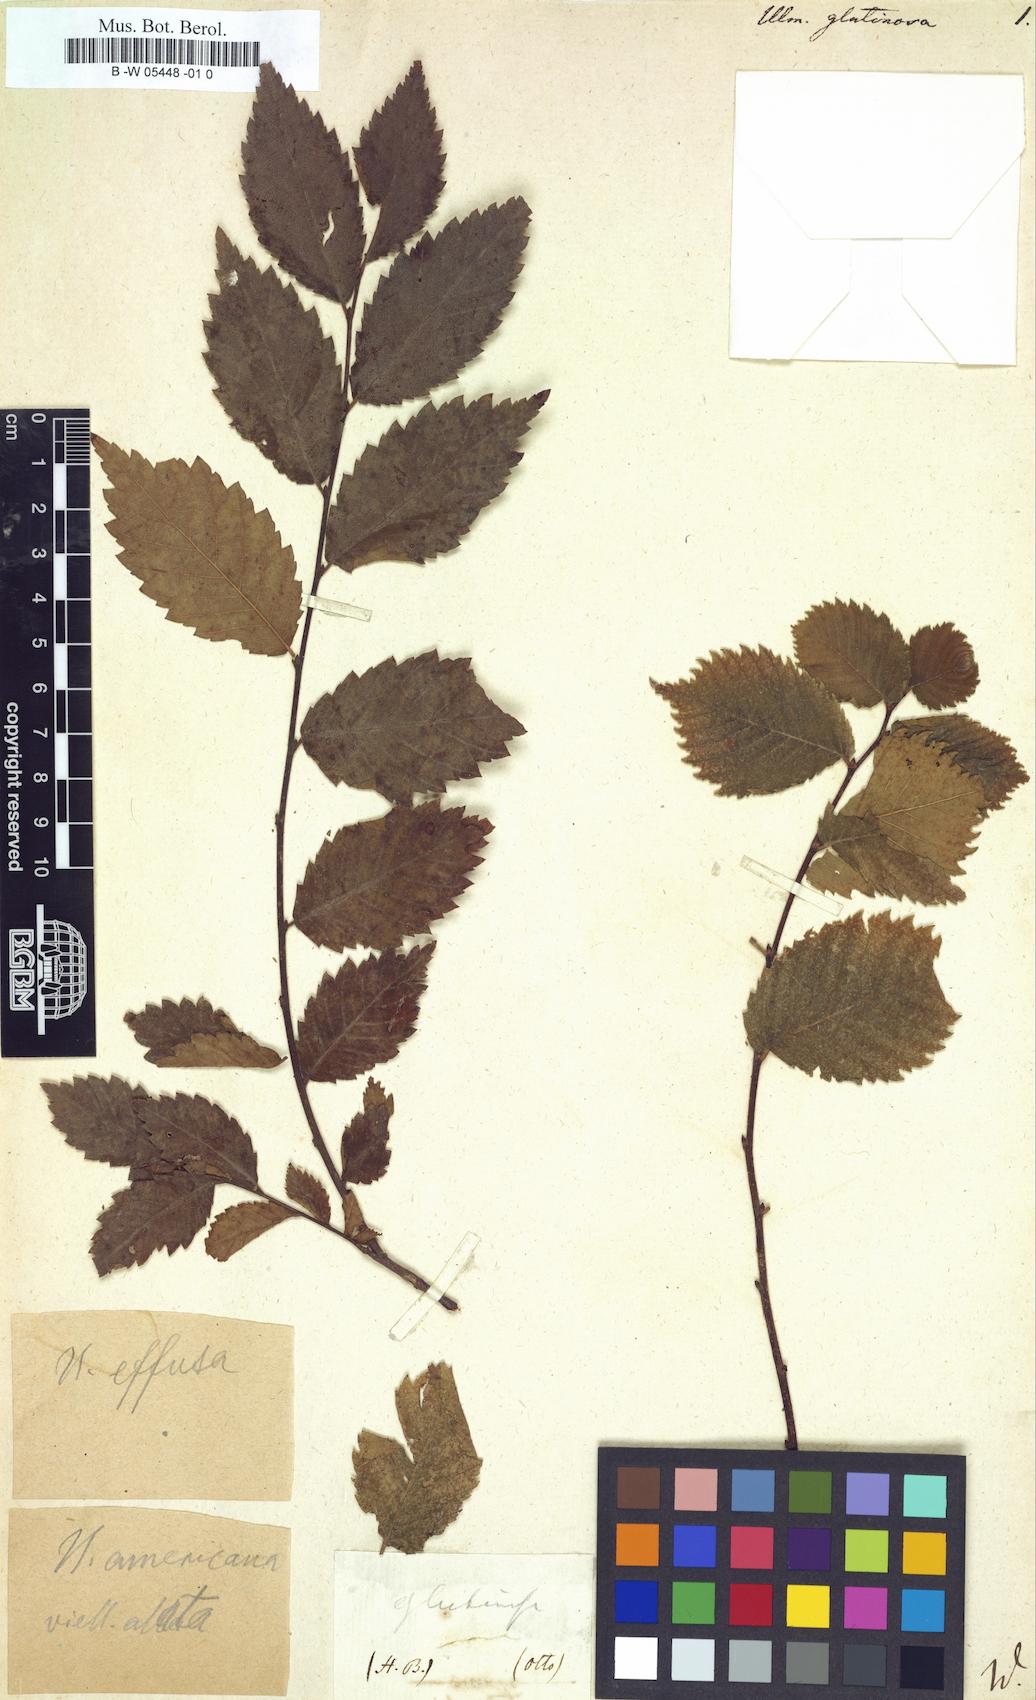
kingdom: Plantae
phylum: Tracheophyta
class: Magnoliopsida
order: Rosales
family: Ulmaceae
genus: Ulmus
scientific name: Ulmus glabra
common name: Wych elm
